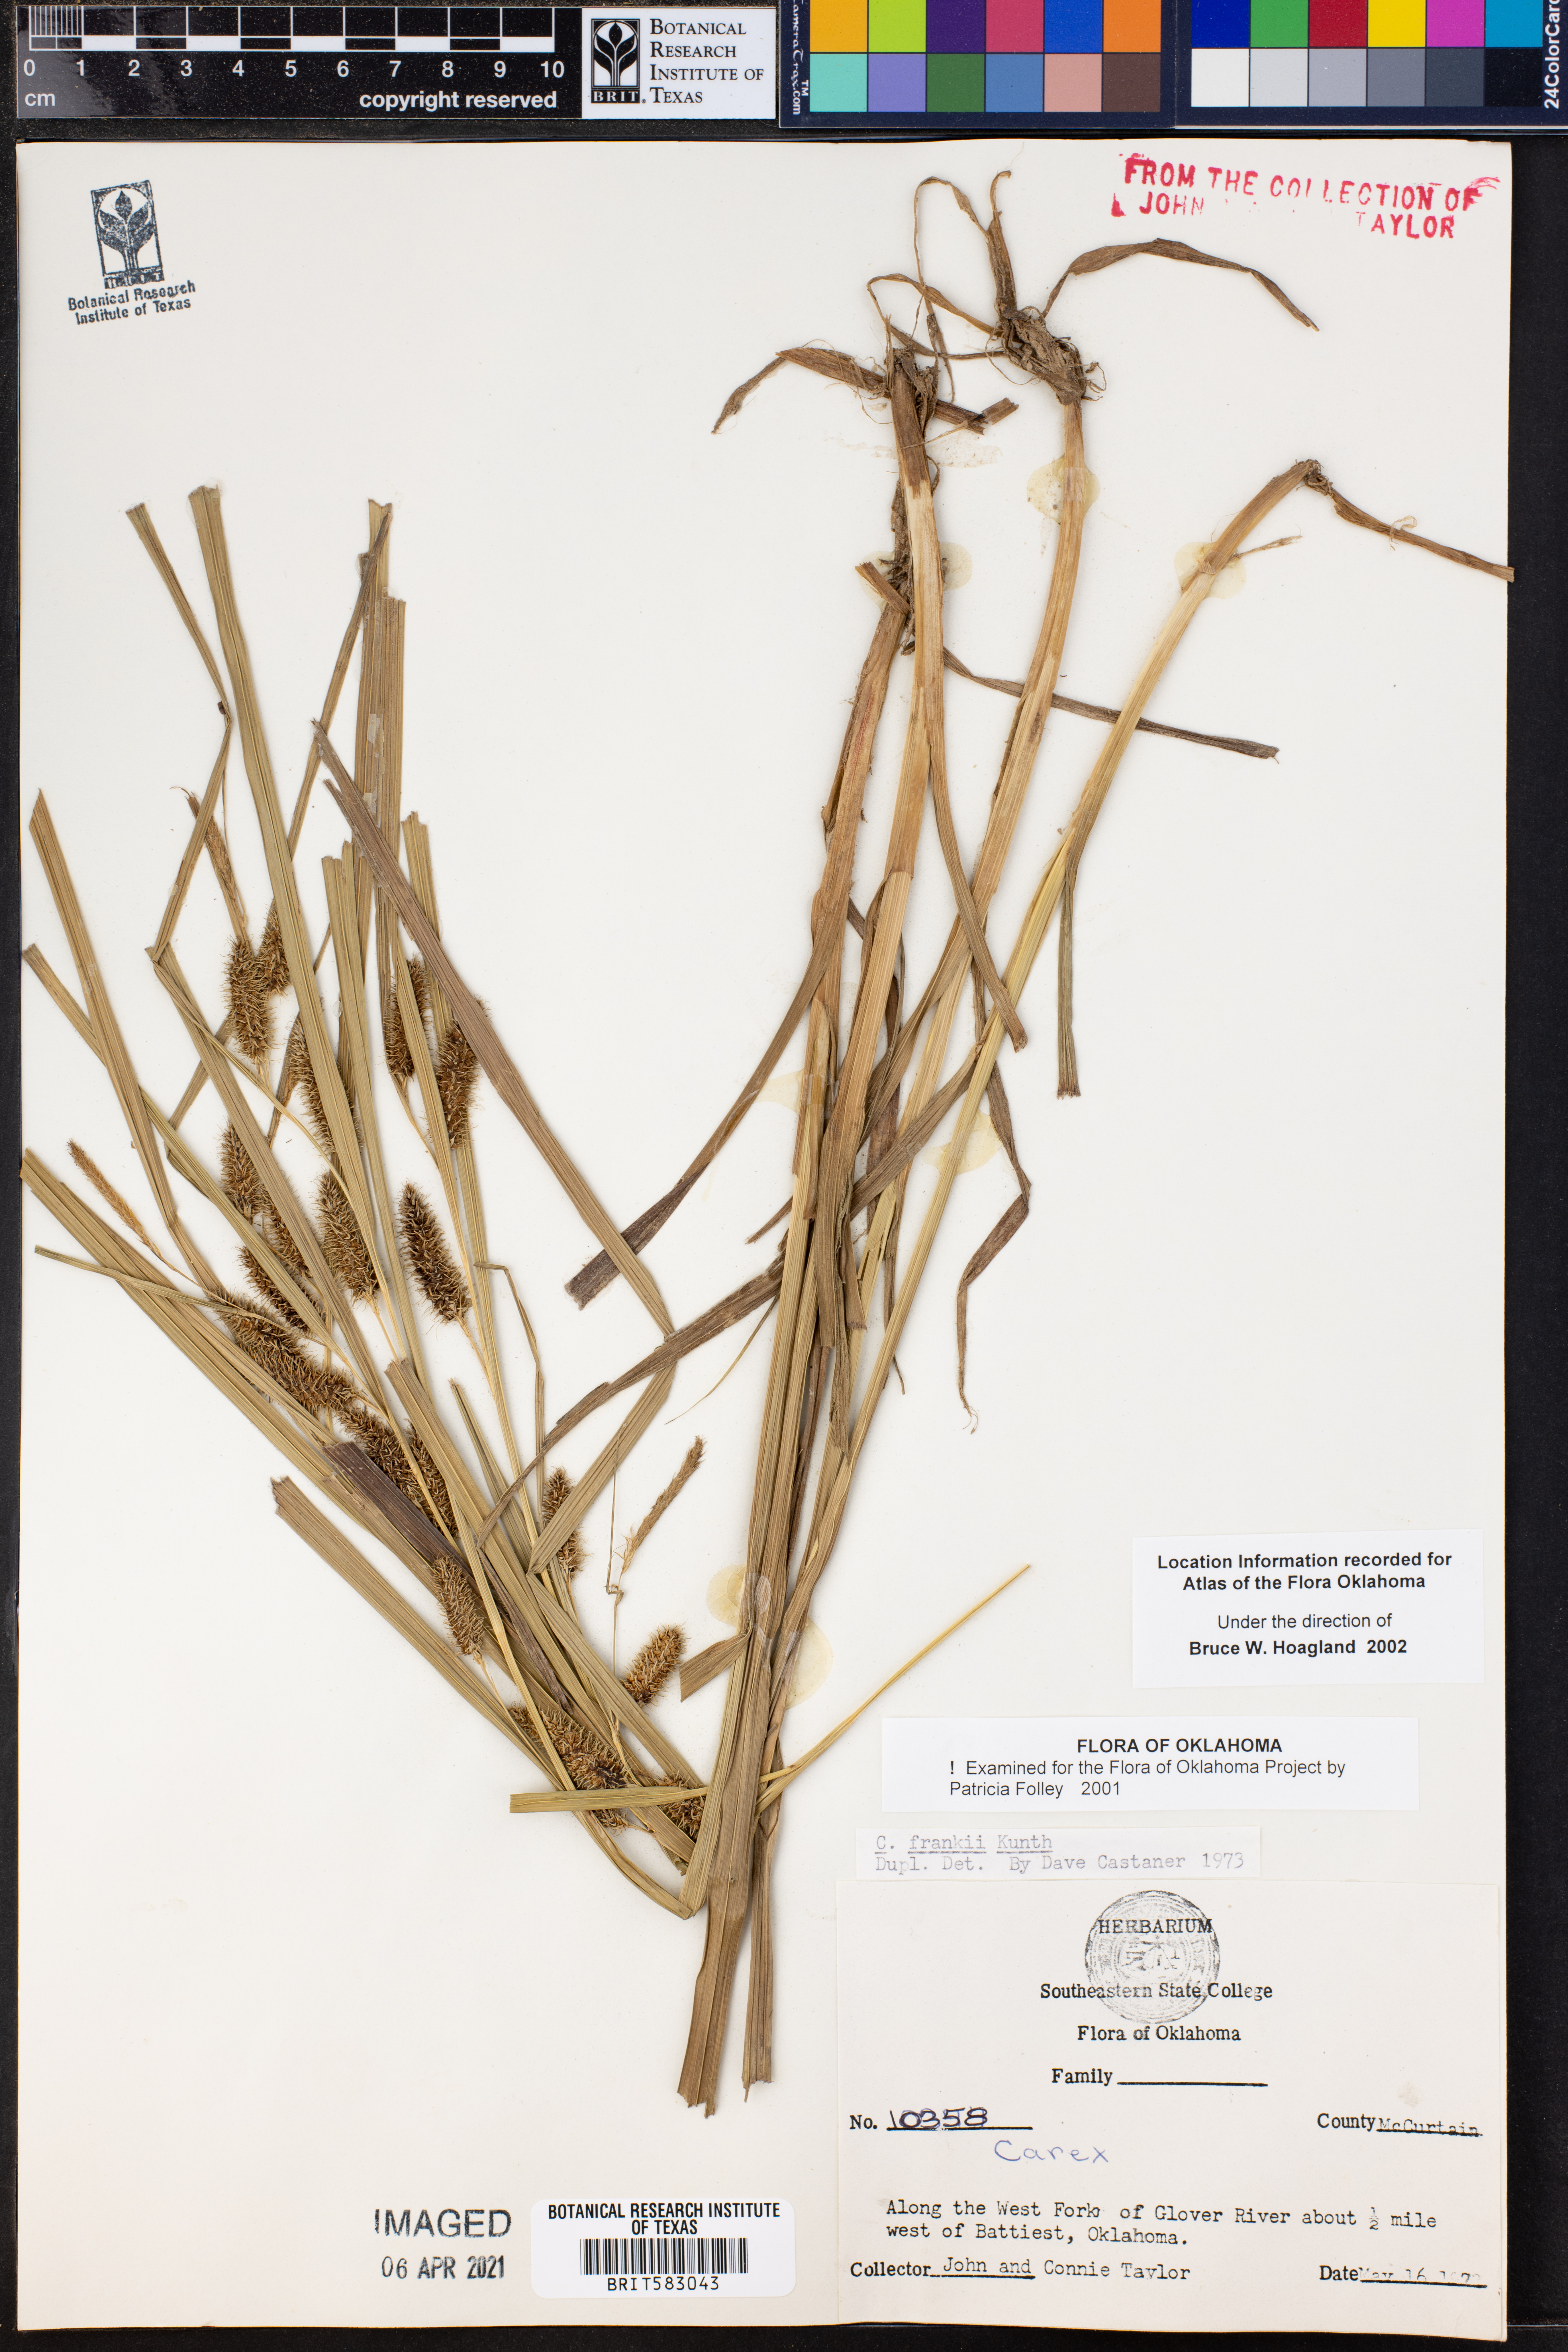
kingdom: Plantae
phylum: Tracheophyta
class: Liliopsida
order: Poales
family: Cyperaceae
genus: Carex
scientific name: Carex frankii
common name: Frank's sedge
